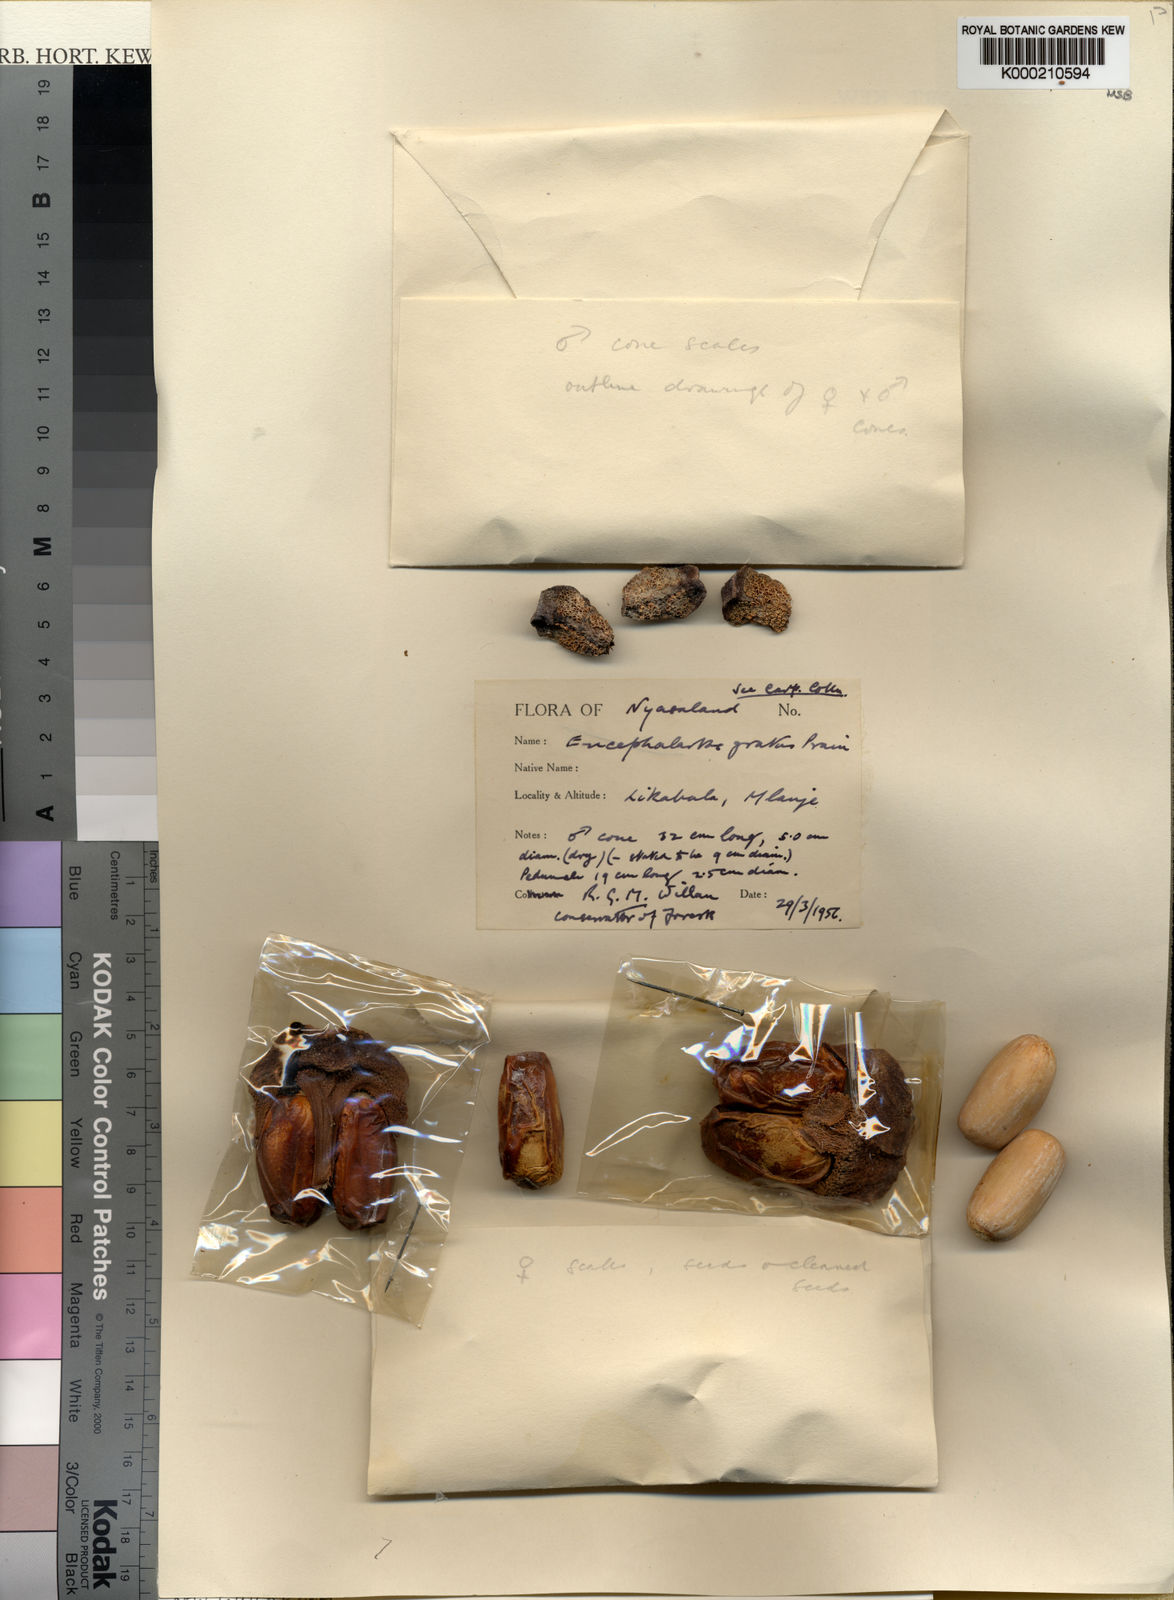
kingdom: Plantae
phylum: Tracheophyta
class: Cycadopsida
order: Cycadales
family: Zamiaceae
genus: Encephalartos
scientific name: Encephalartos gratus
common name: Mulanje cycad
